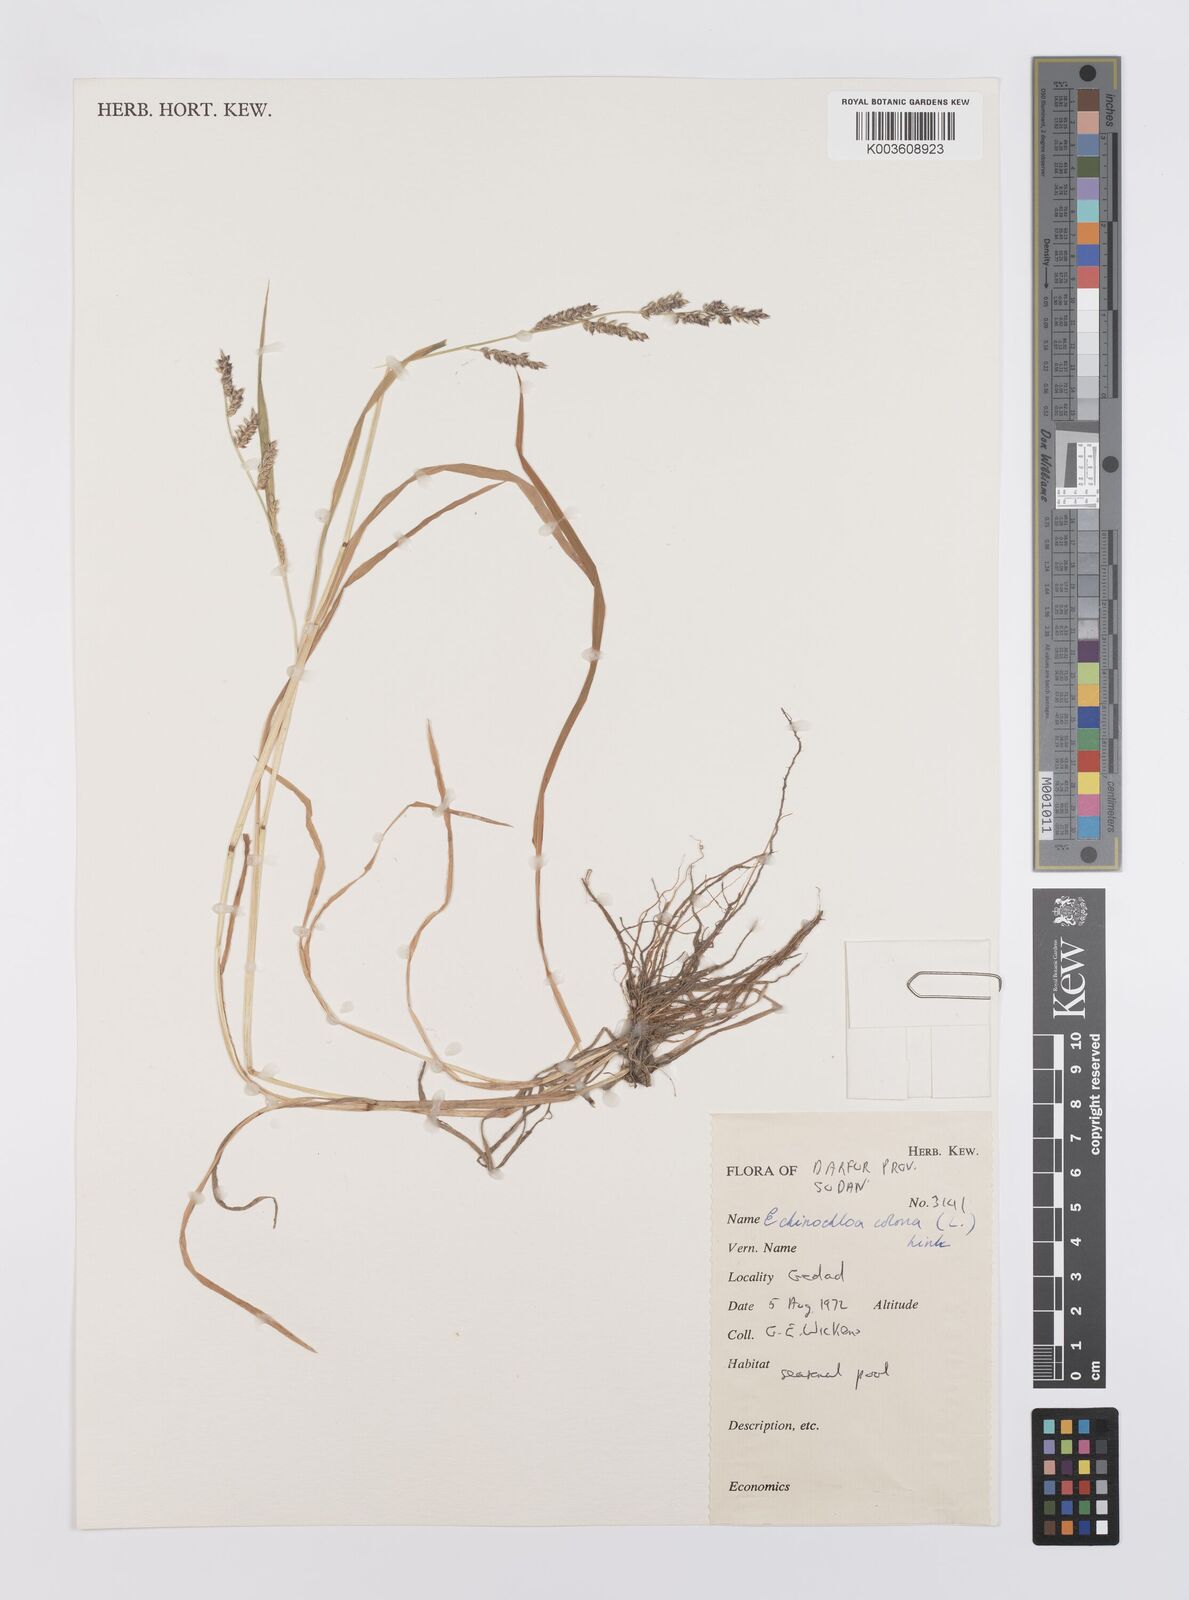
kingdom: Plantae
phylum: Tracheophyta
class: Liliopsida
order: Poales
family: Poaceae
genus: Echinochloa
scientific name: Echinochloa colonum
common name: Jungle rice
